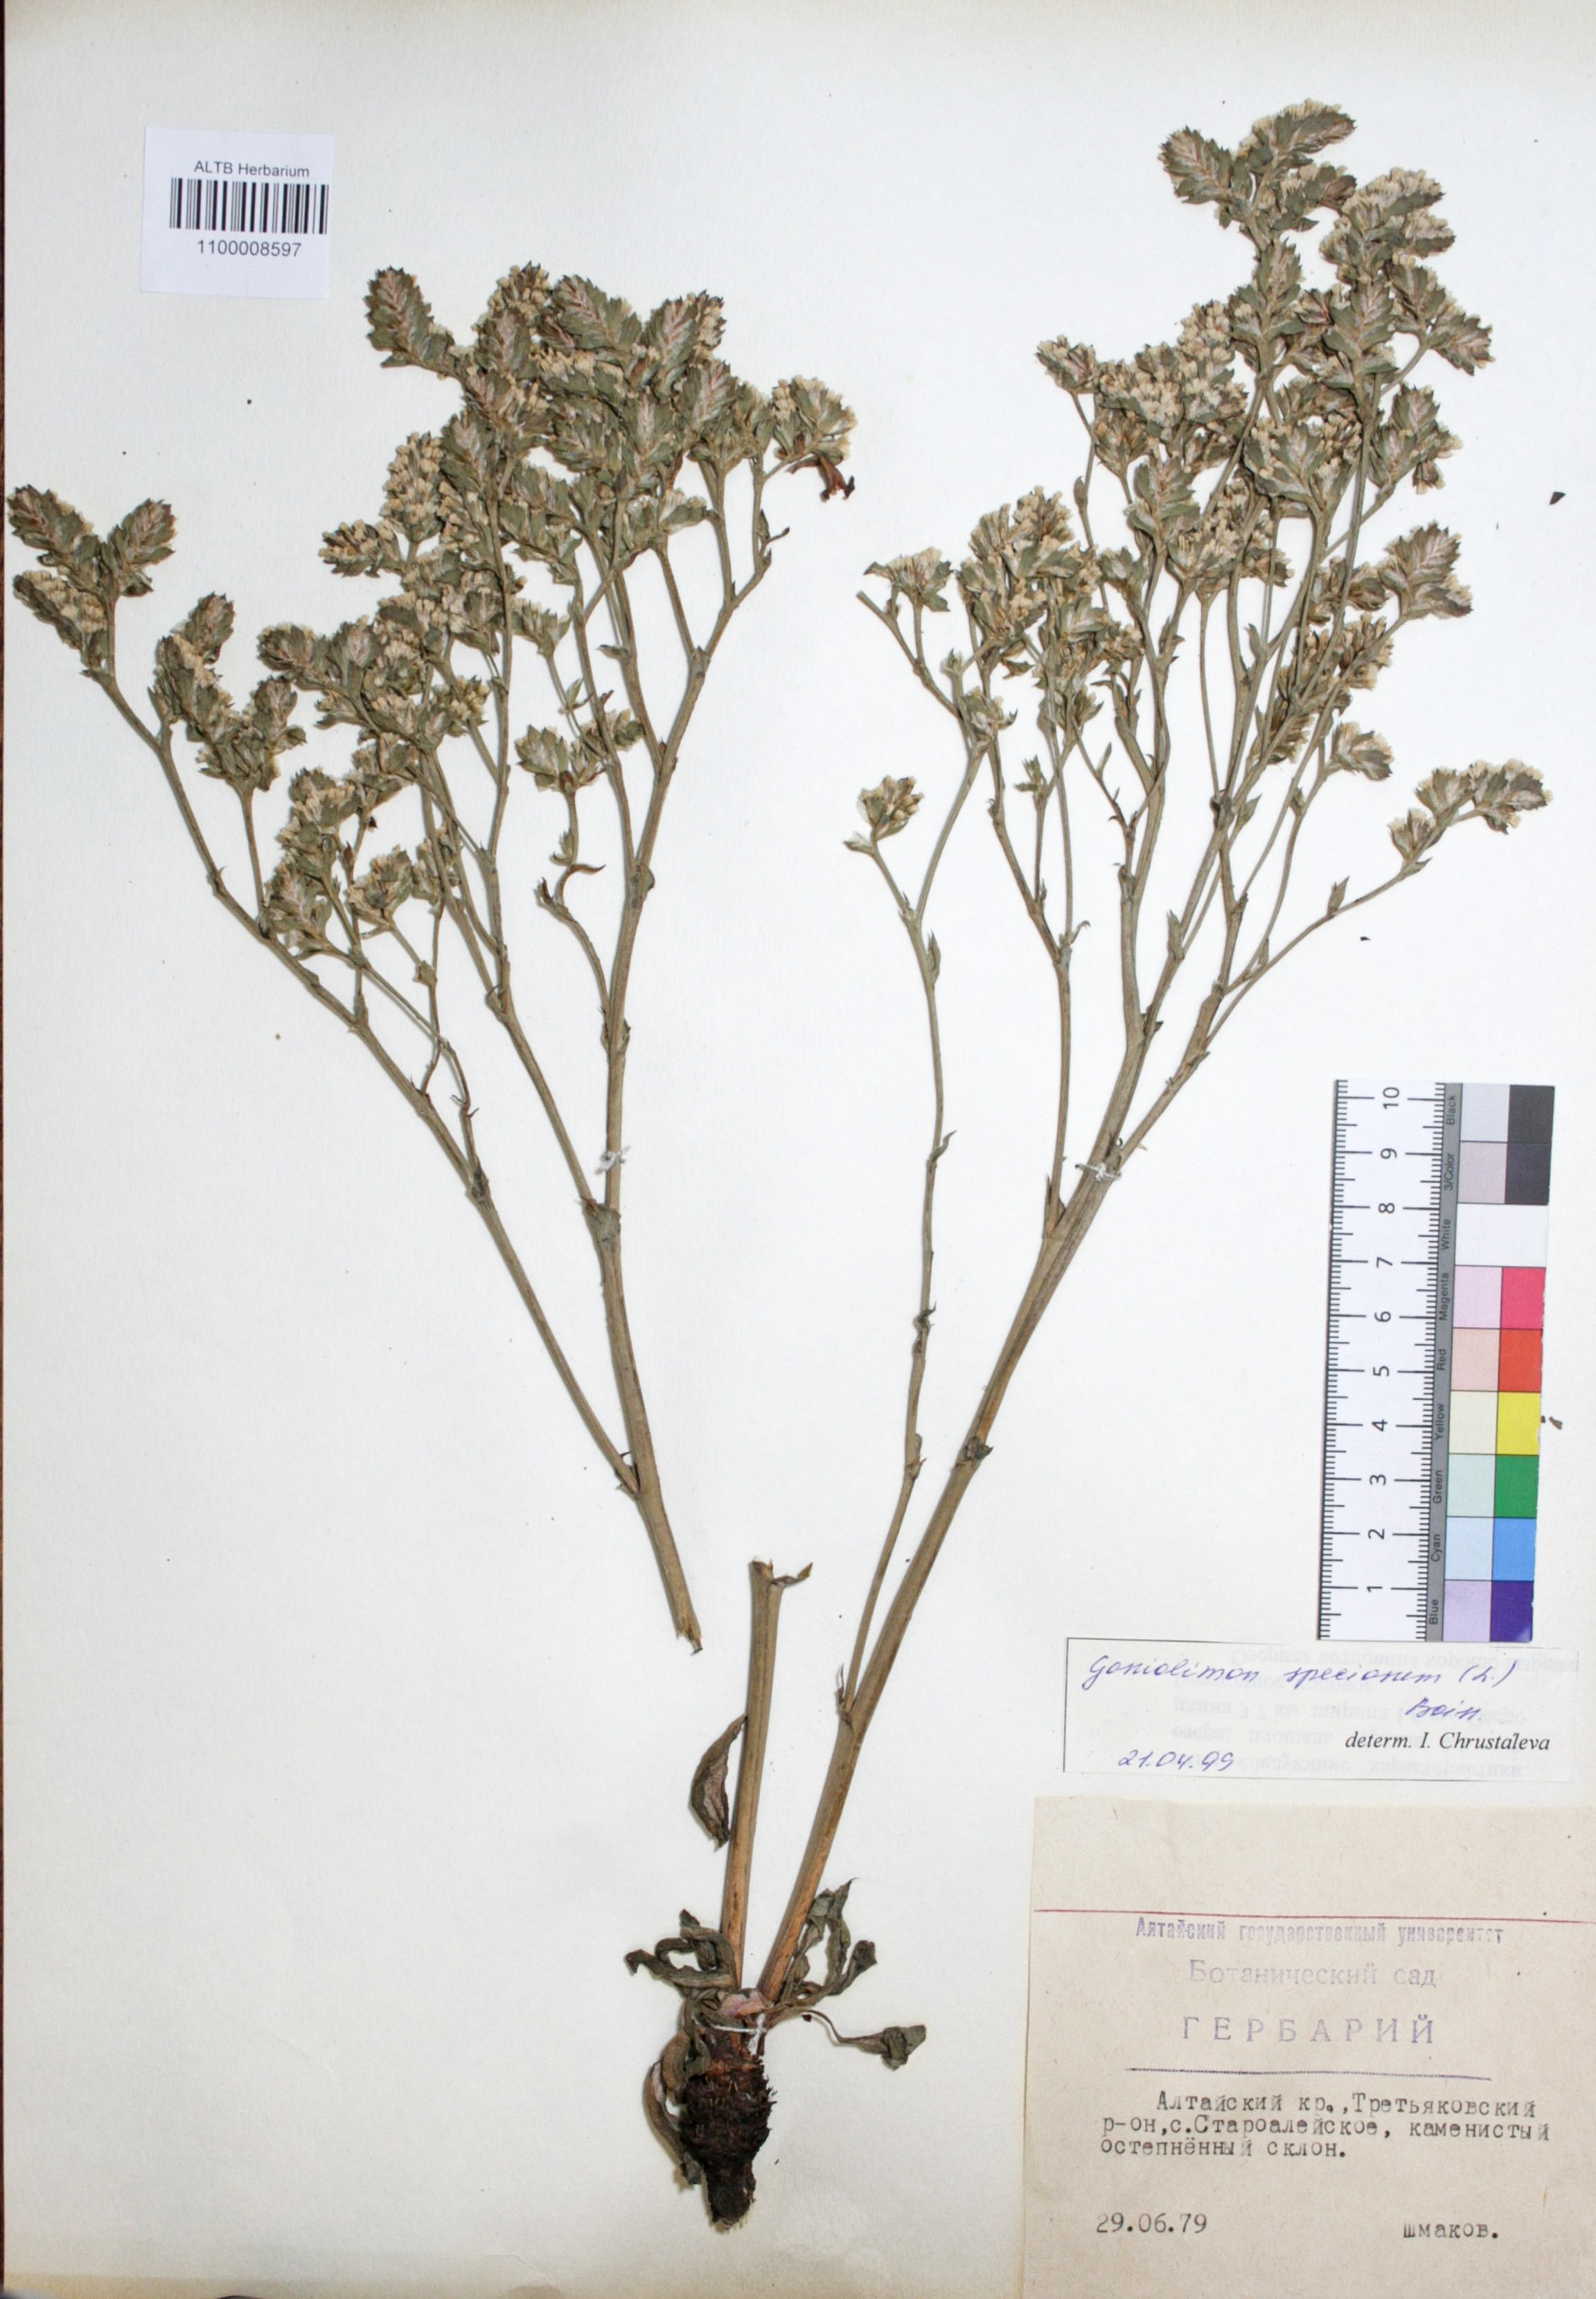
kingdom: Plantae
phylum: Tracheophyta
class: Magnoliopsida
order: Caryophyllales
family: Plumbaginaceae
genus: Goniolimon
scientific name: Goniolimon speciosum
